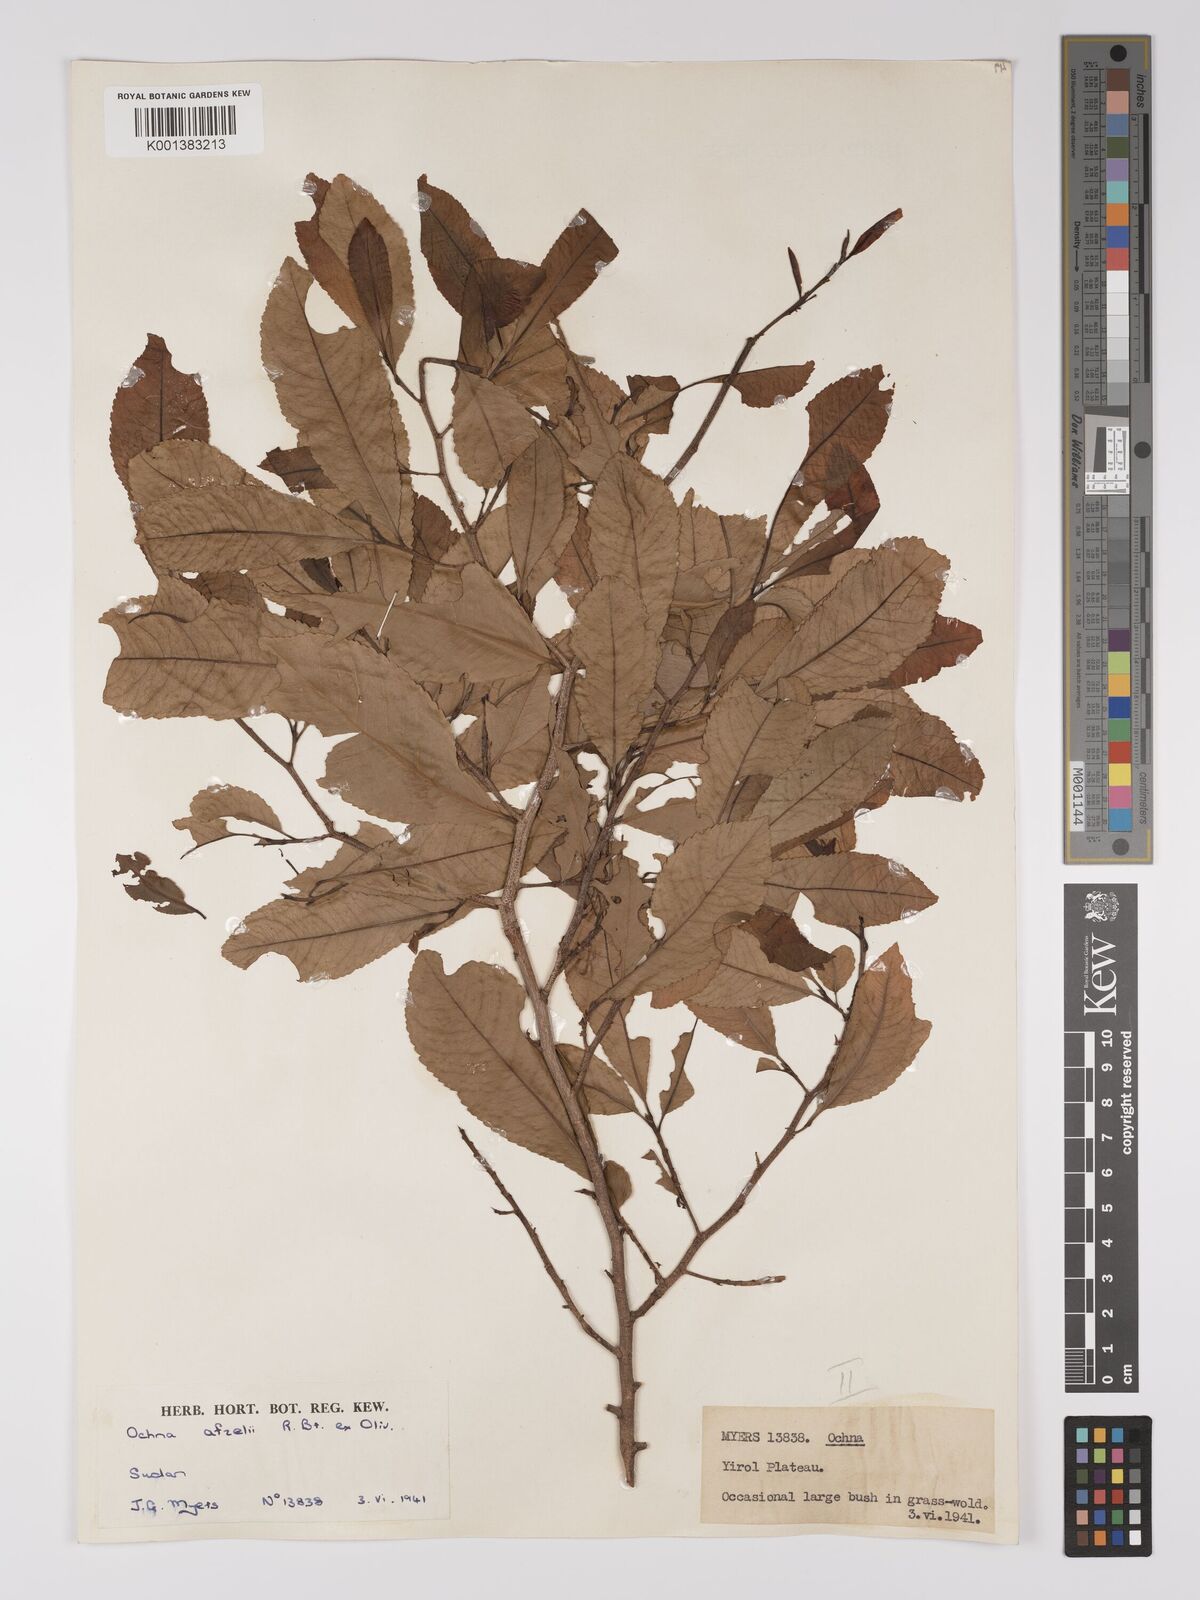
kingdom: Plantae
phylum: Tracheophyta
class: Magnoliopsida
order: Malpighiales
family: Ochnaceae
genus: Ochna
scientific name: Ochna afzelii
